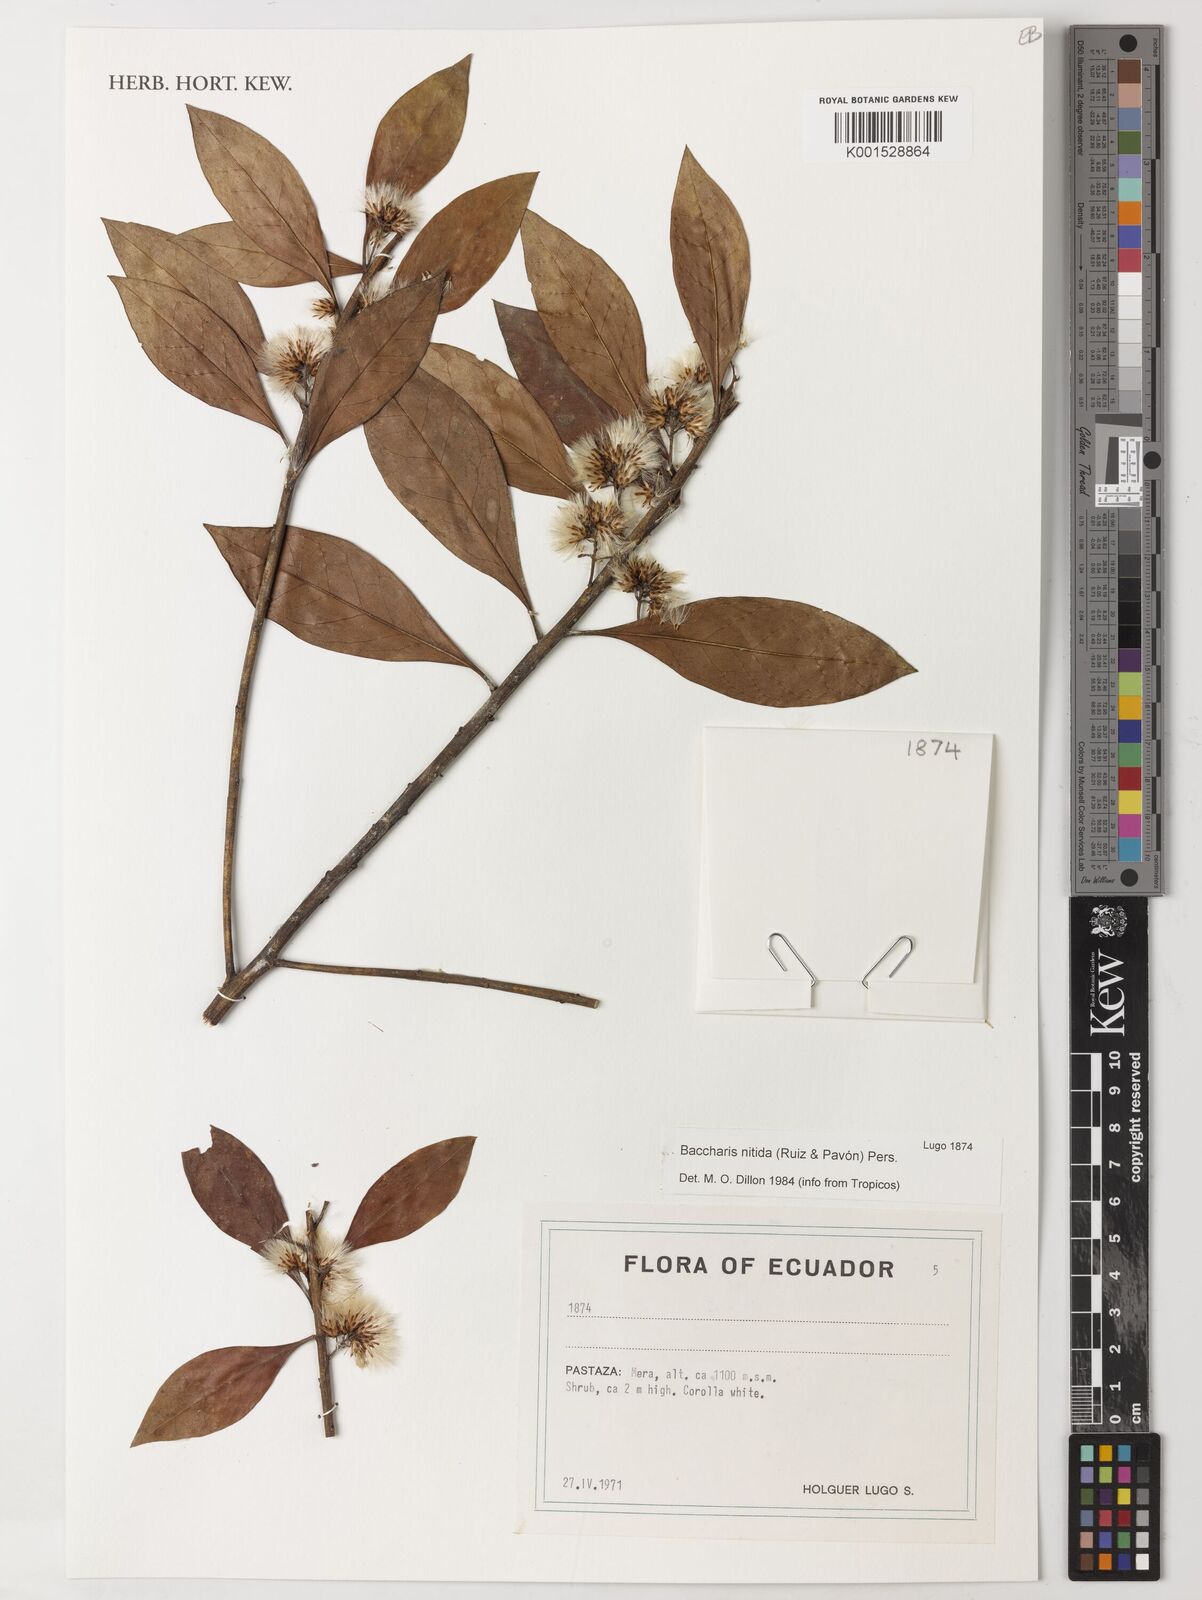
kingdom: Plantae
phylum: Tracheophyta
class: Magnoliopsida
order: Asterales
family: Asteraceae
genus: Baccharis
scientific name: Baccharis nitida
